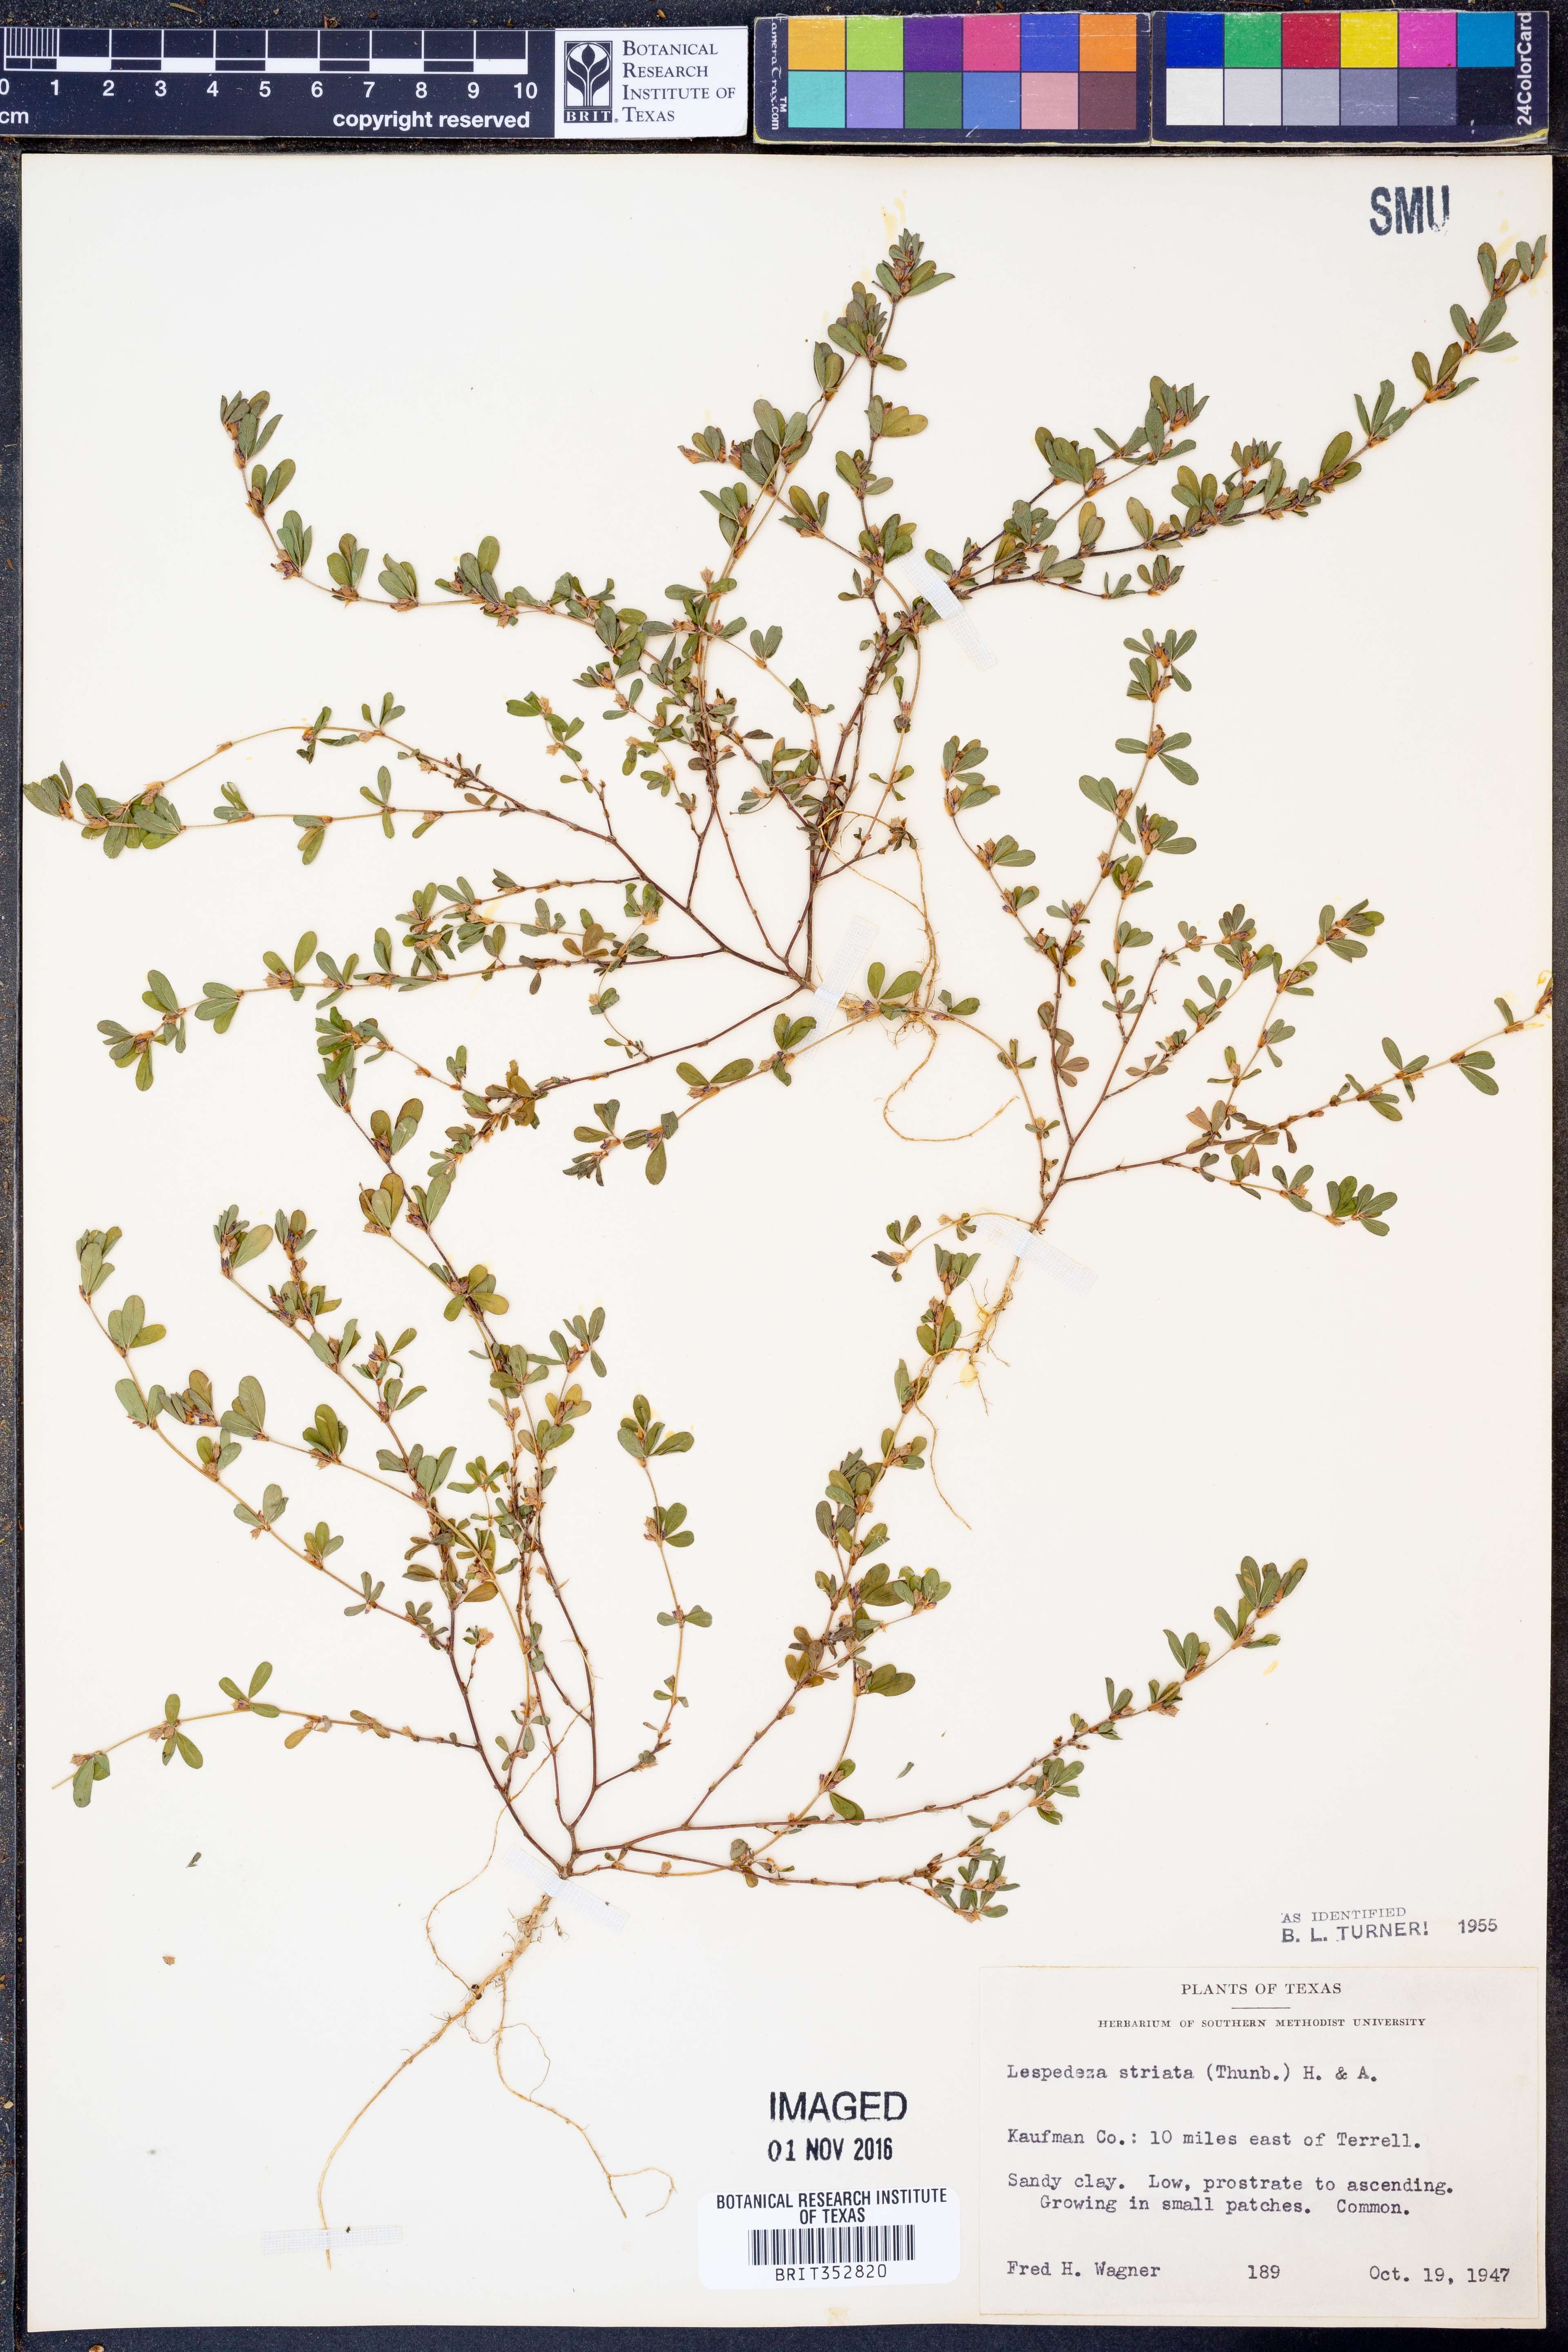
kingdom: Plantae
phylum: Tracheophyta
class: Magnoliopsida
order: Fabales
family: Fabaceae
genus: Kummerowia
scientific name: Kummerowia striata
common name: Japanese clover
